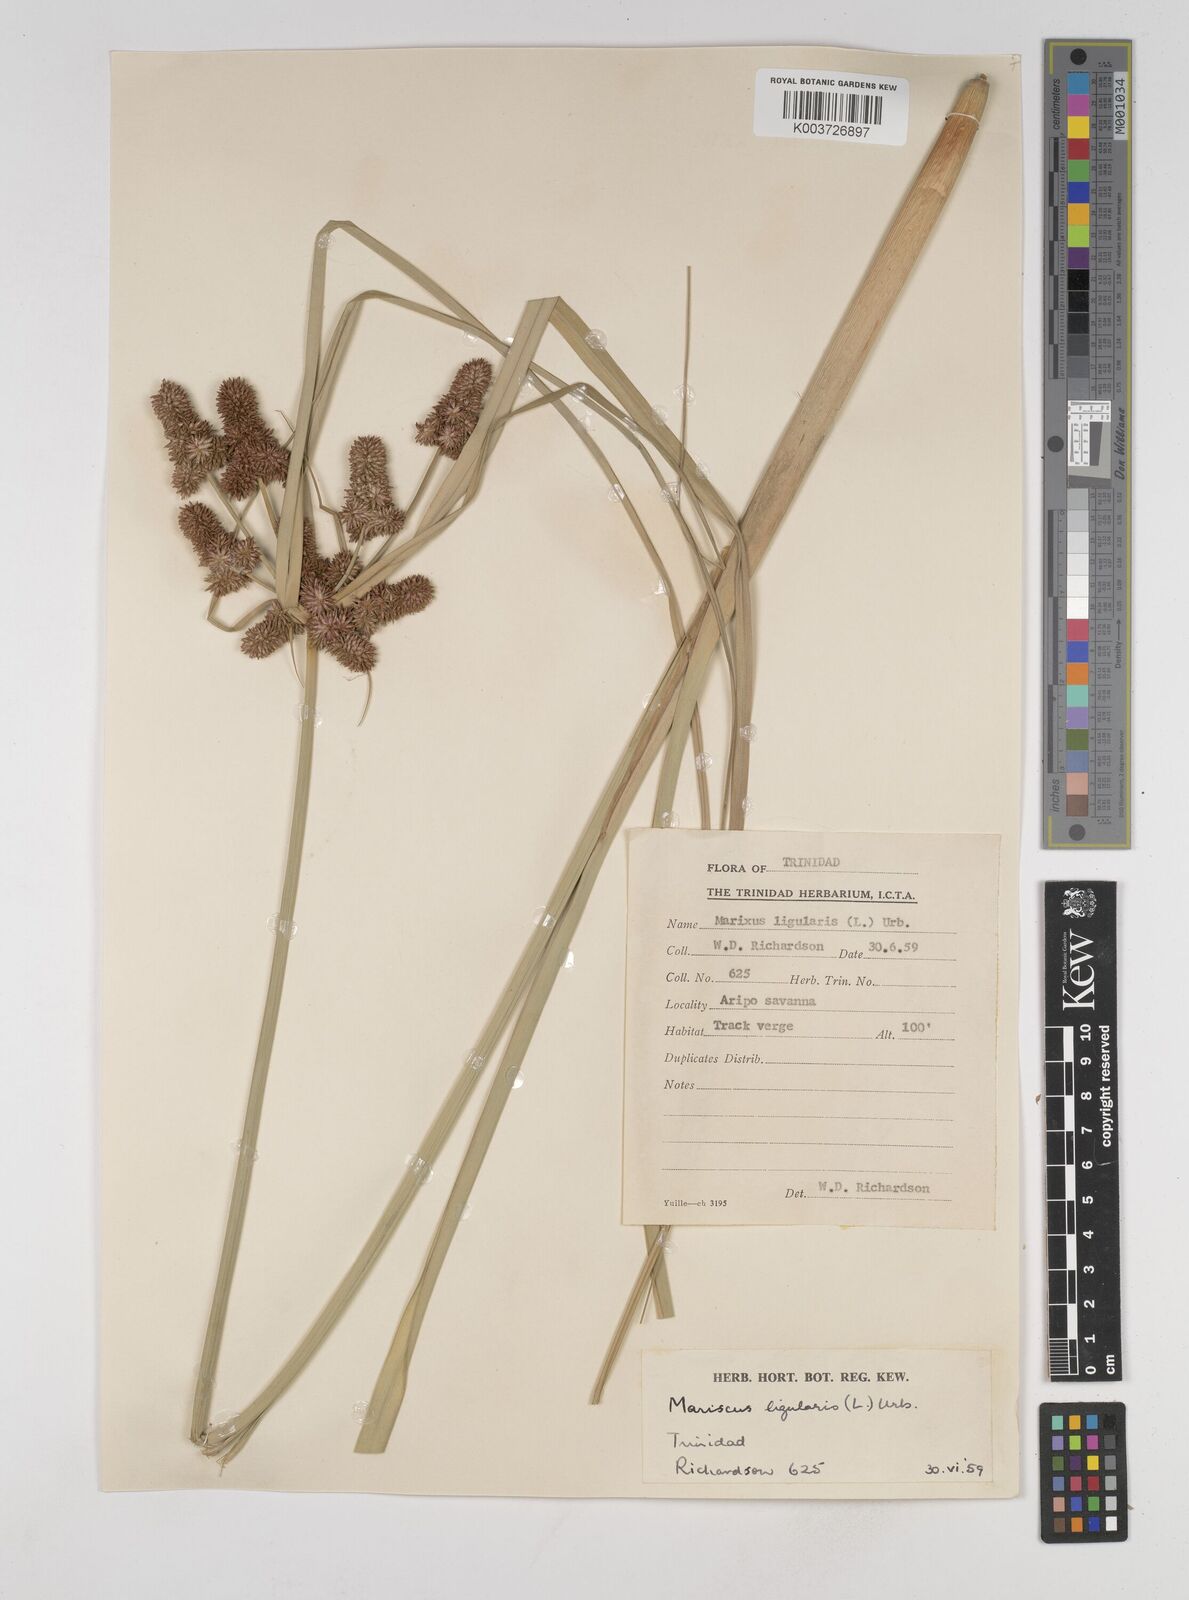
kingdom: Plantae
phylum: Tracheophyta
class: Liliopsida
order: Poales
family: Cyperaceae
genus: Cyperus
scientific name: Cyperus ligularis
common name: Swamp flat sedge
